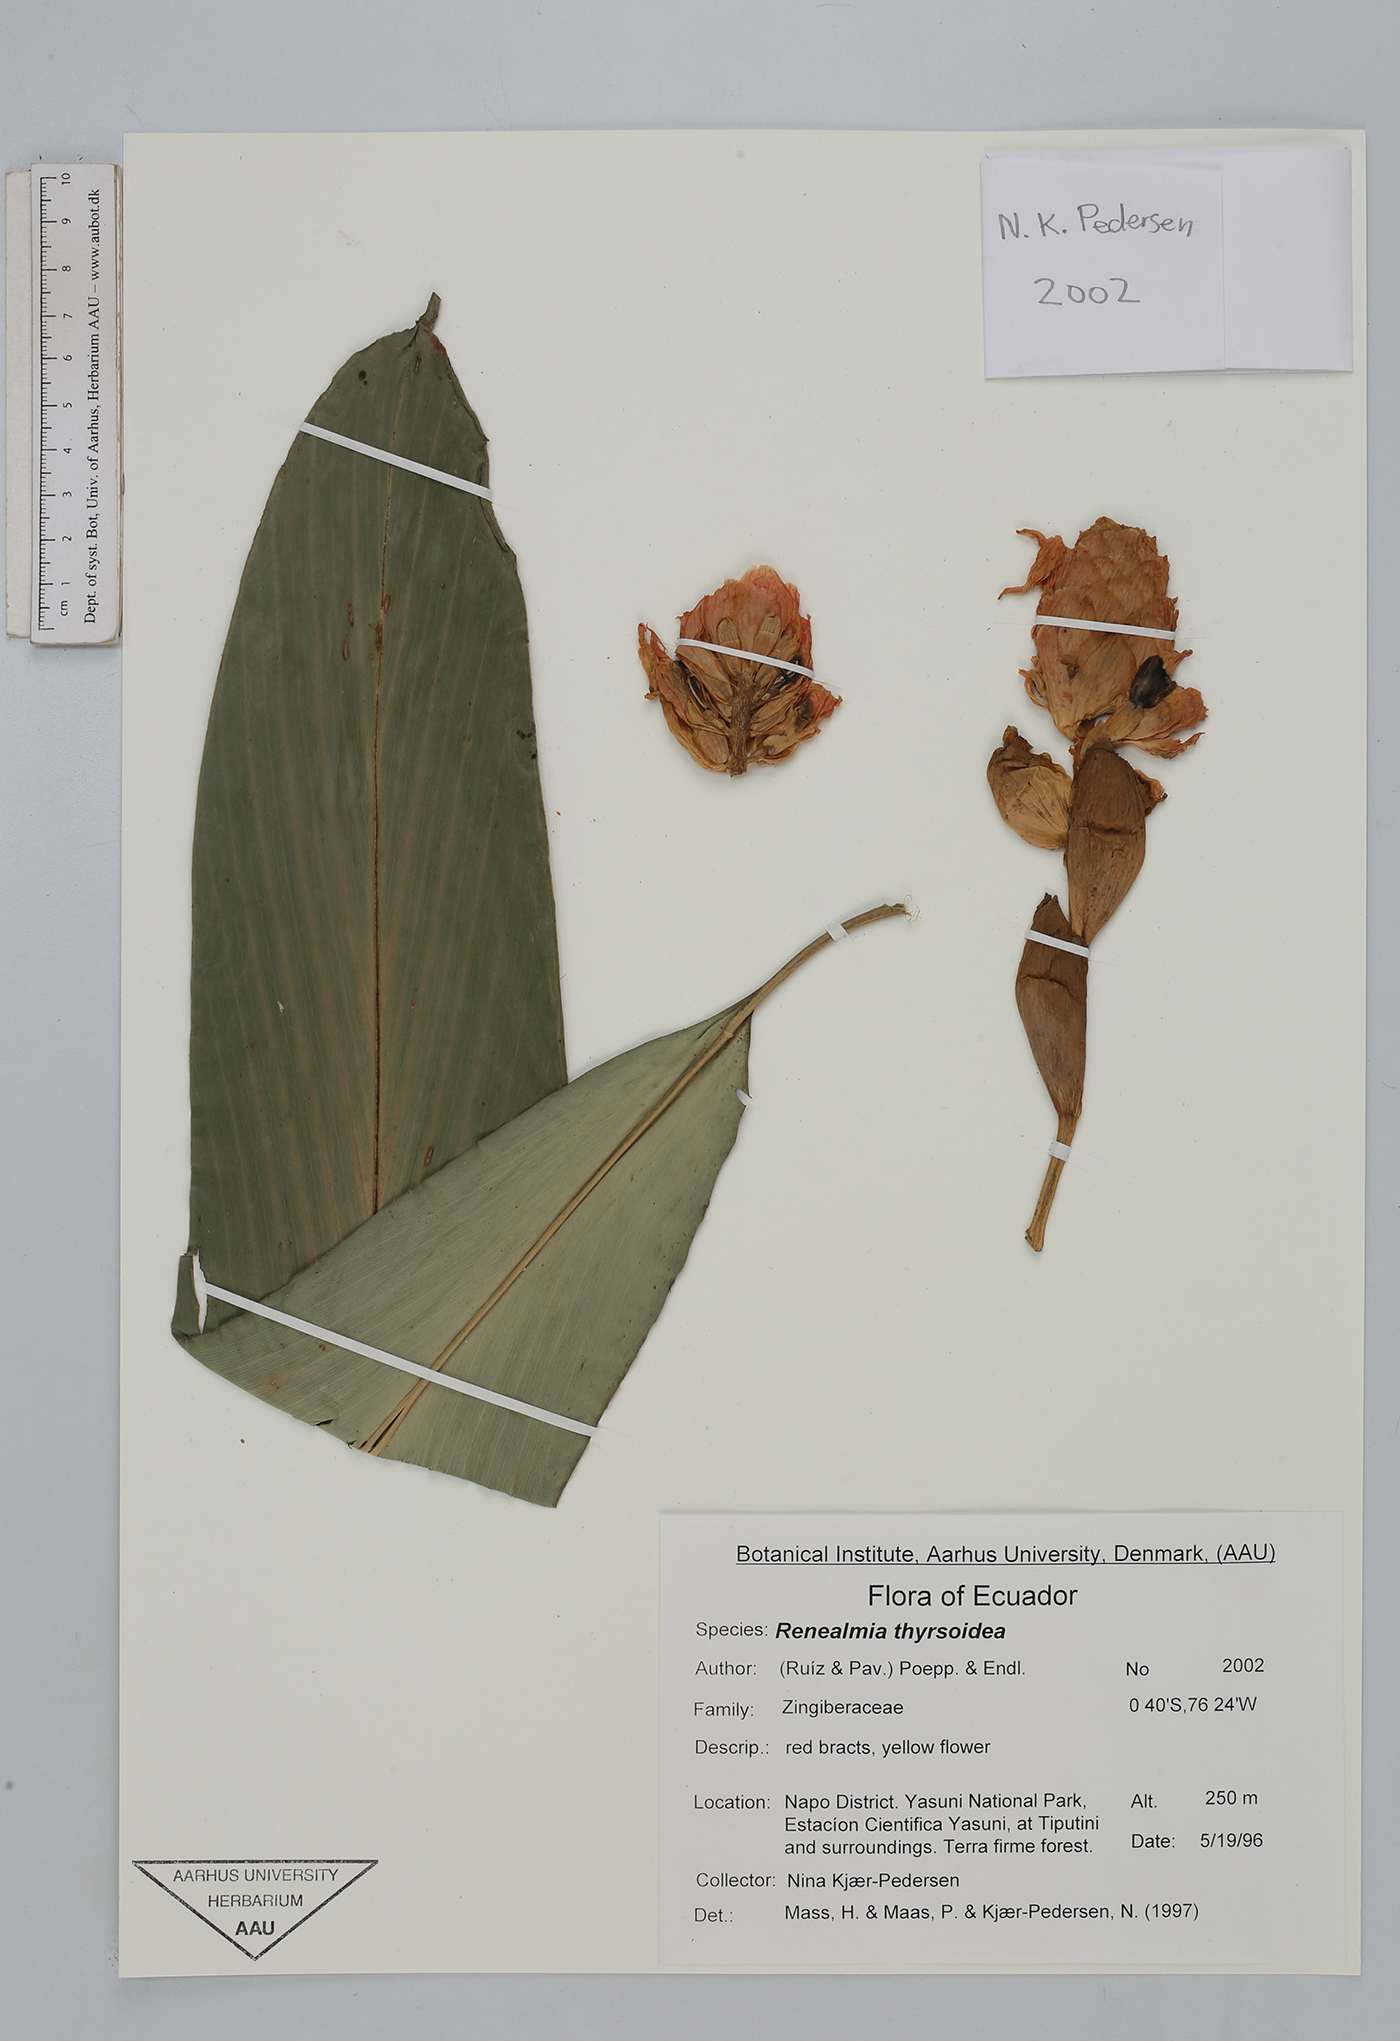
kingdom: Plantae
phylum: Tracheophyta
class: Liliopsida
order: Zingiberales
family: Zingiberaceae
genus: Renealmia
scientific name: Renealmia thyrsoidea
